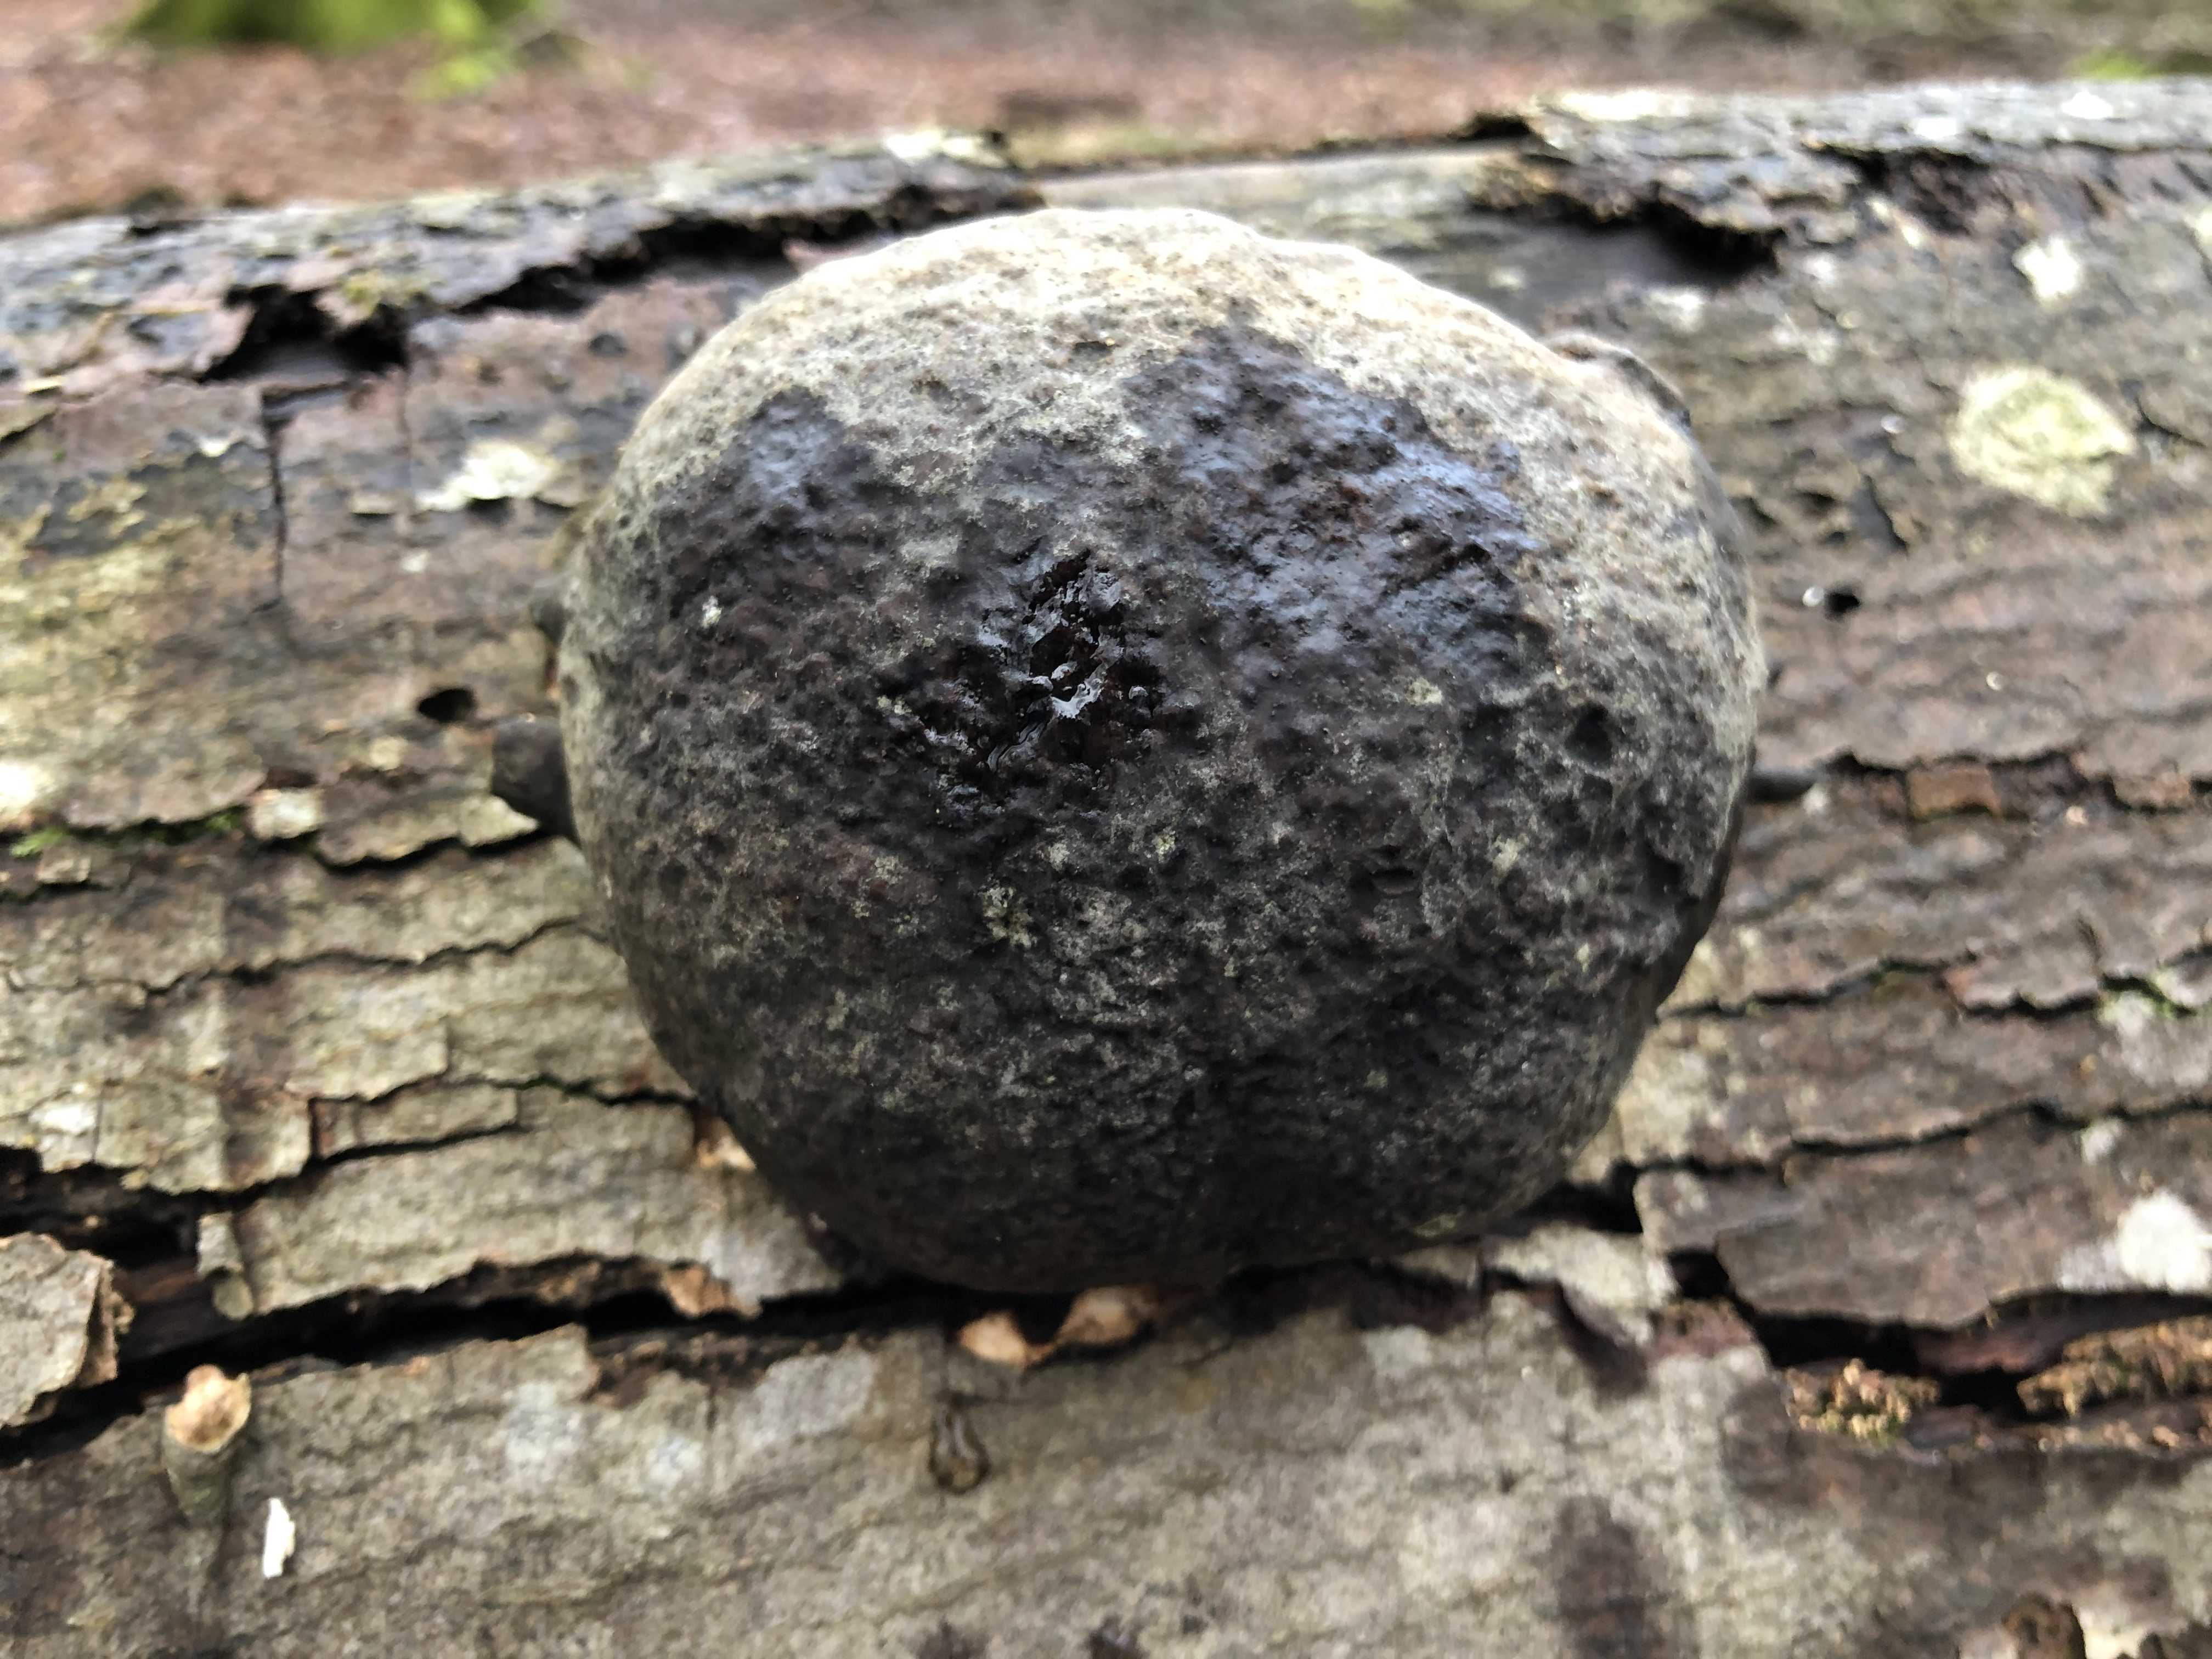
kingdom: Fungi
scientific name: Fungi
